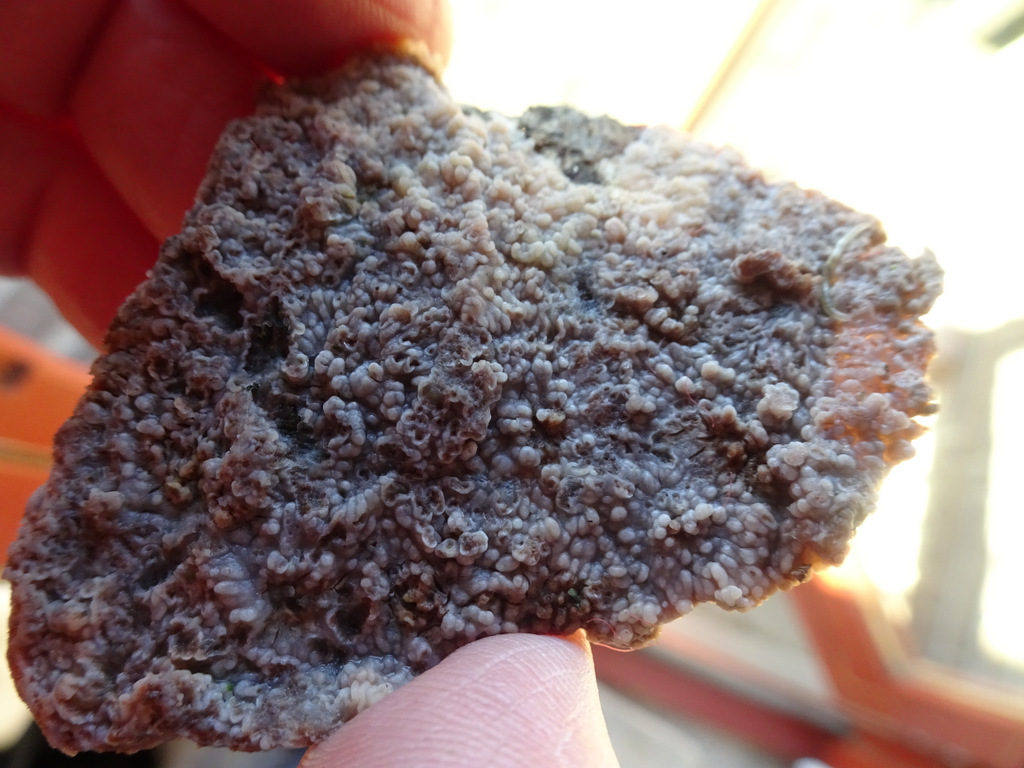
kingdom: Fungi
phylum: Basidiomycota
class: Agaricomycetes
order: Polyporales
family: Meruliaceae
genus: Phlebia
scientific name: Phlebia radiata
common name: stråle-åresvamp
